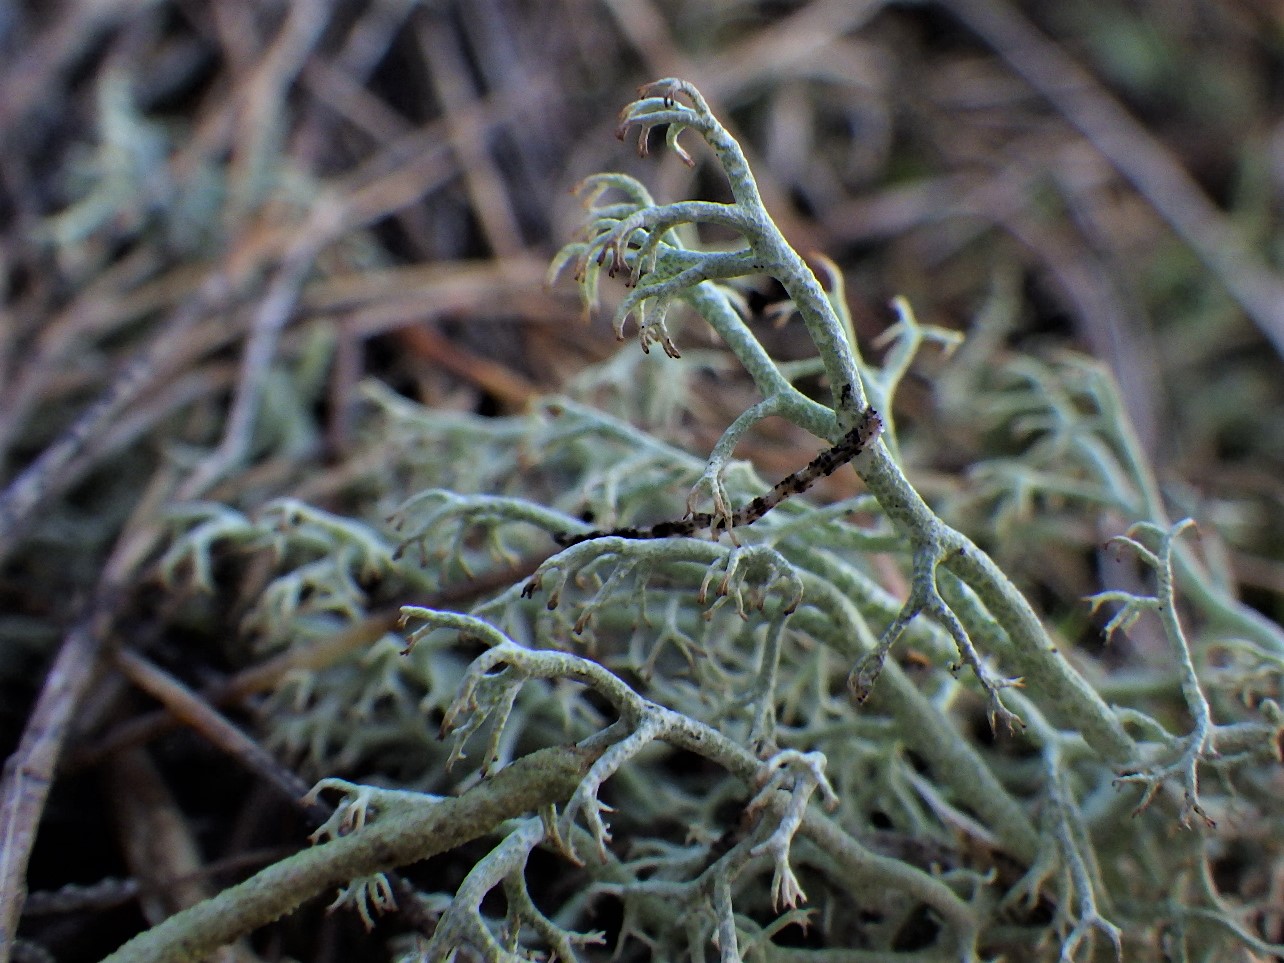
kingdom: Fungi
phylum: Ascomycota
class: Lecanoromycetes
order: Lecanorales
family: Cladoniaceae
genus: Cladonia
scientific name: Cladonia ciliata
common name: spinkel rensdyrlav
